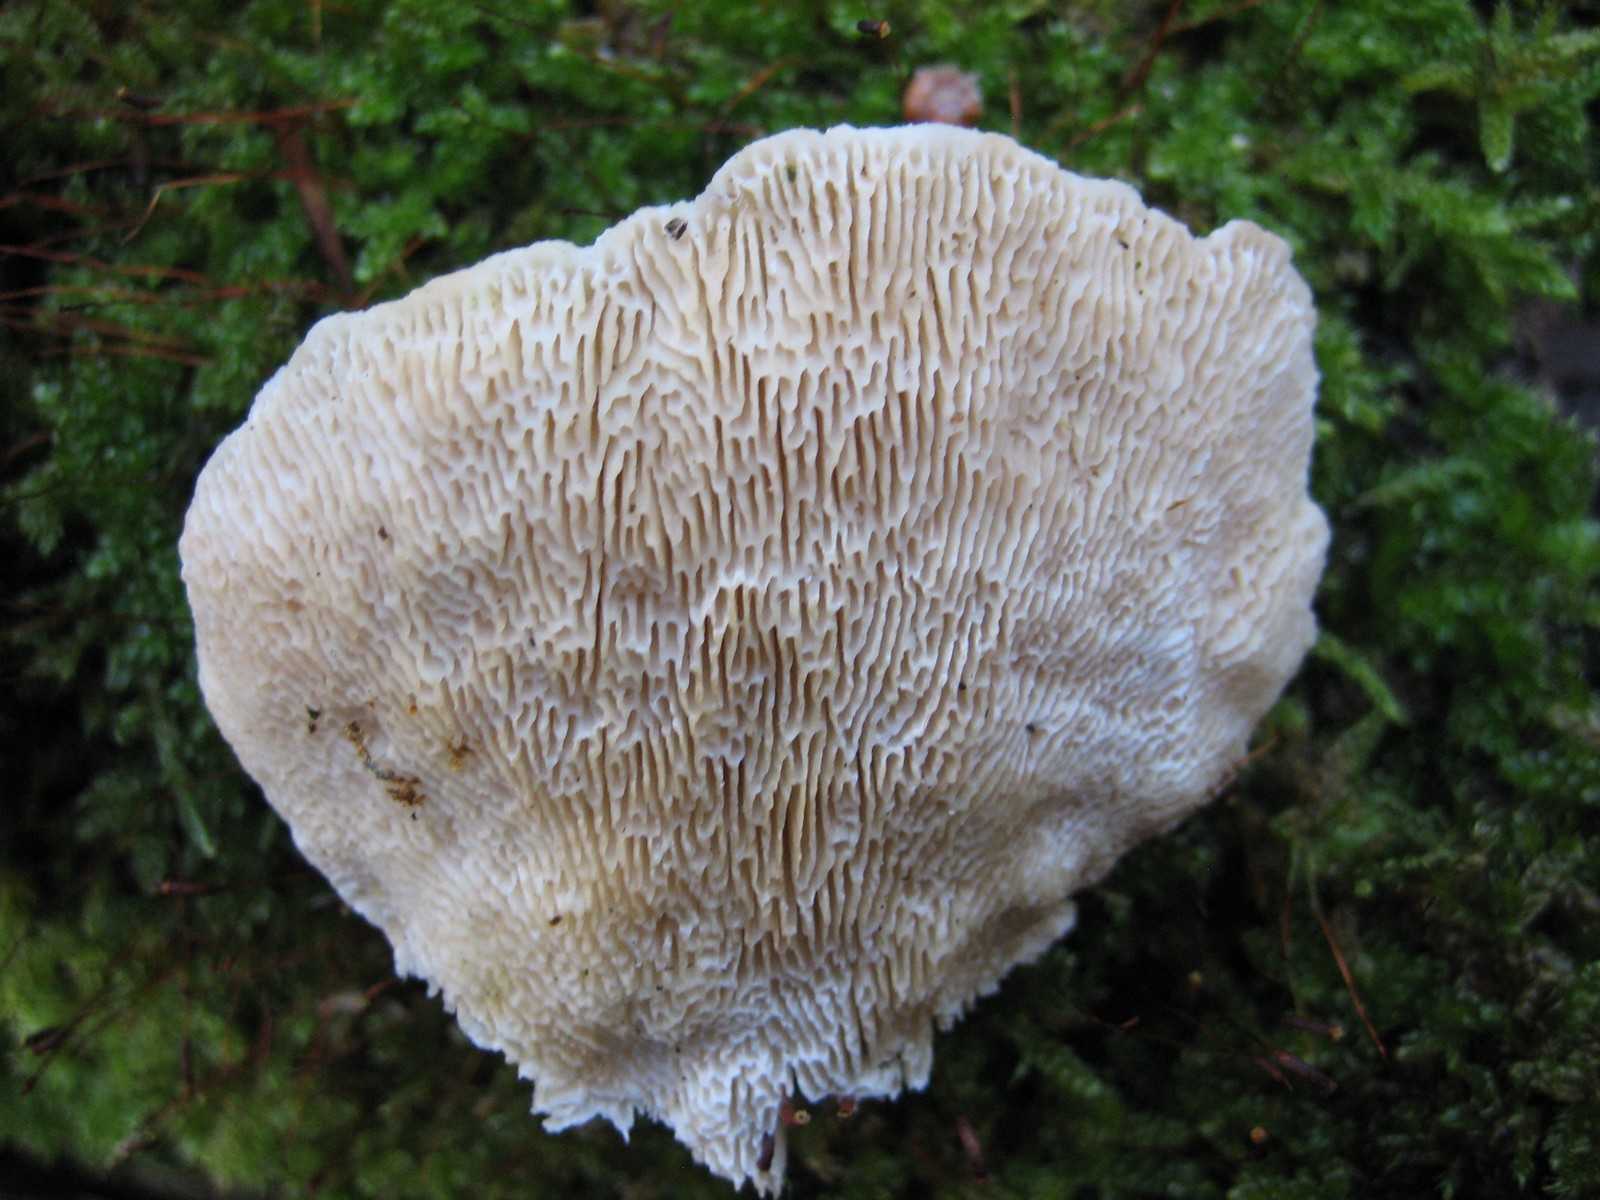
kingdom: Fungi
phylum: Basidiomycota
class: Agaricomycetes
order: Polyporales
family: Polyporaceae
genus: Trametes
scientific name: Trametes gibbosa
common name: puklet læderporesvamp
